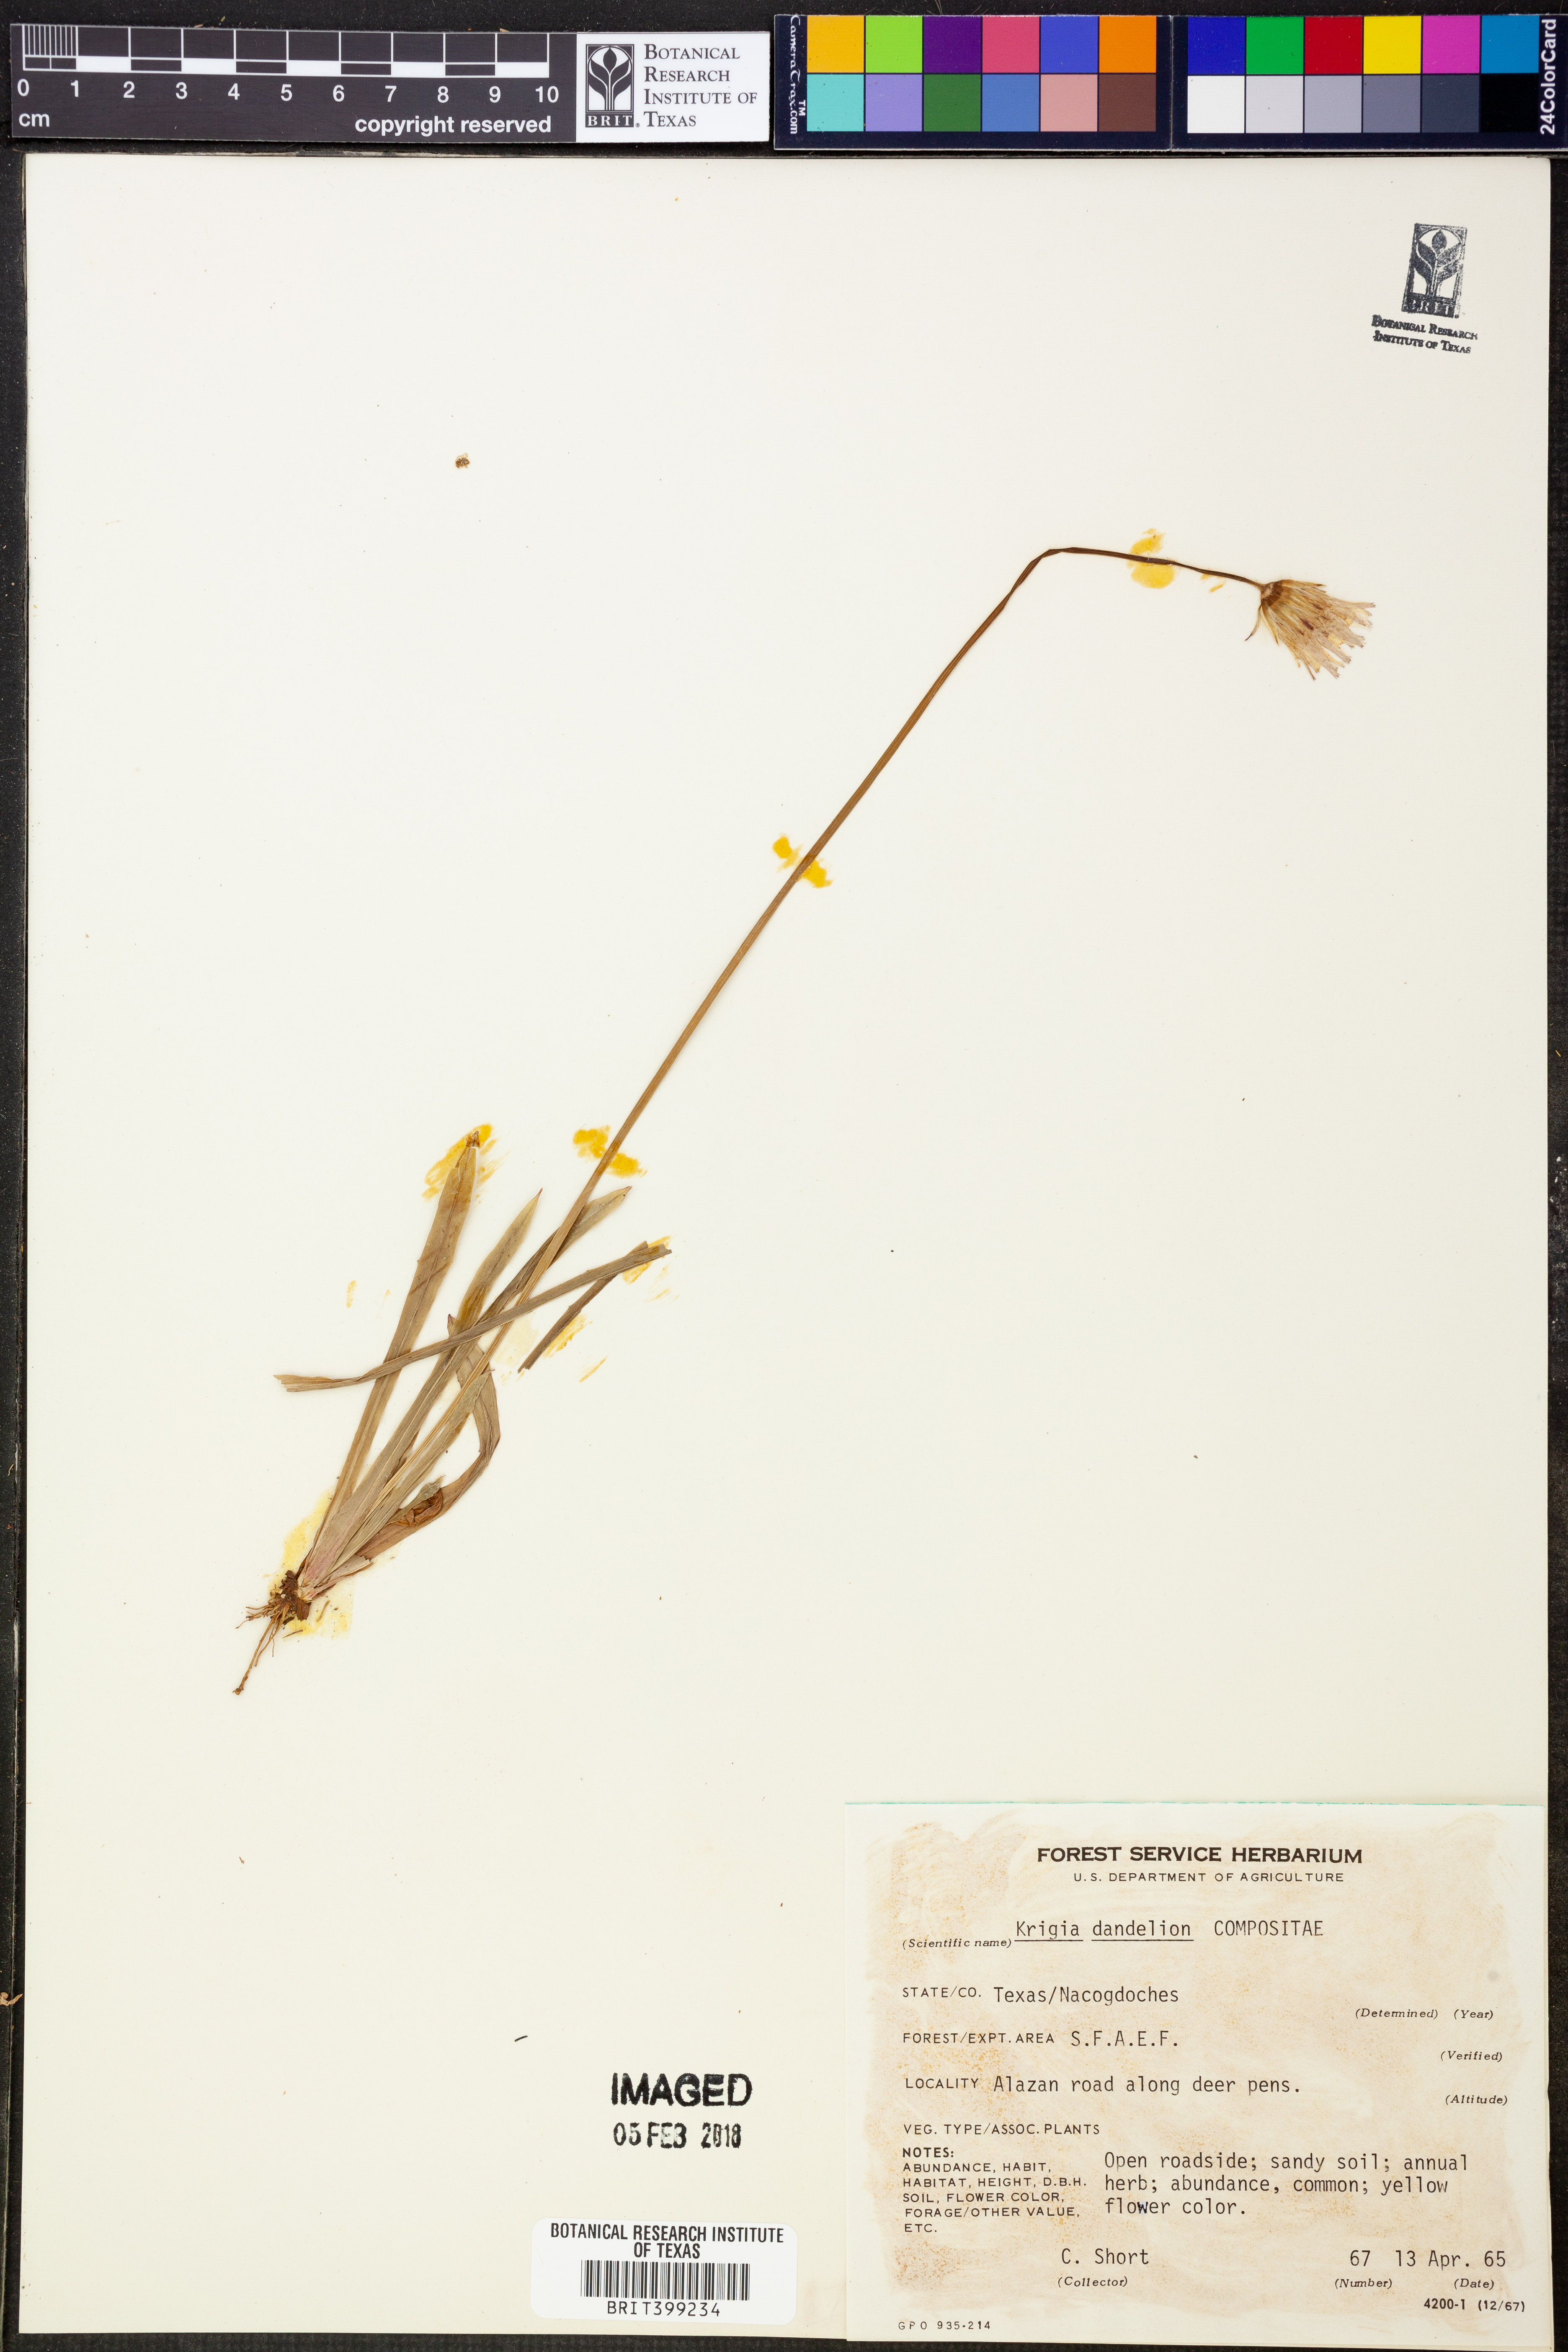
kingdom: Plantae
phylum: Tracheophyta
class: Magnoliopsida
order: Asterales
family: Asteraceae
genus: Krigia
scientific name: Krigia dandelion
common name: Colonial dwarf-dandelion
